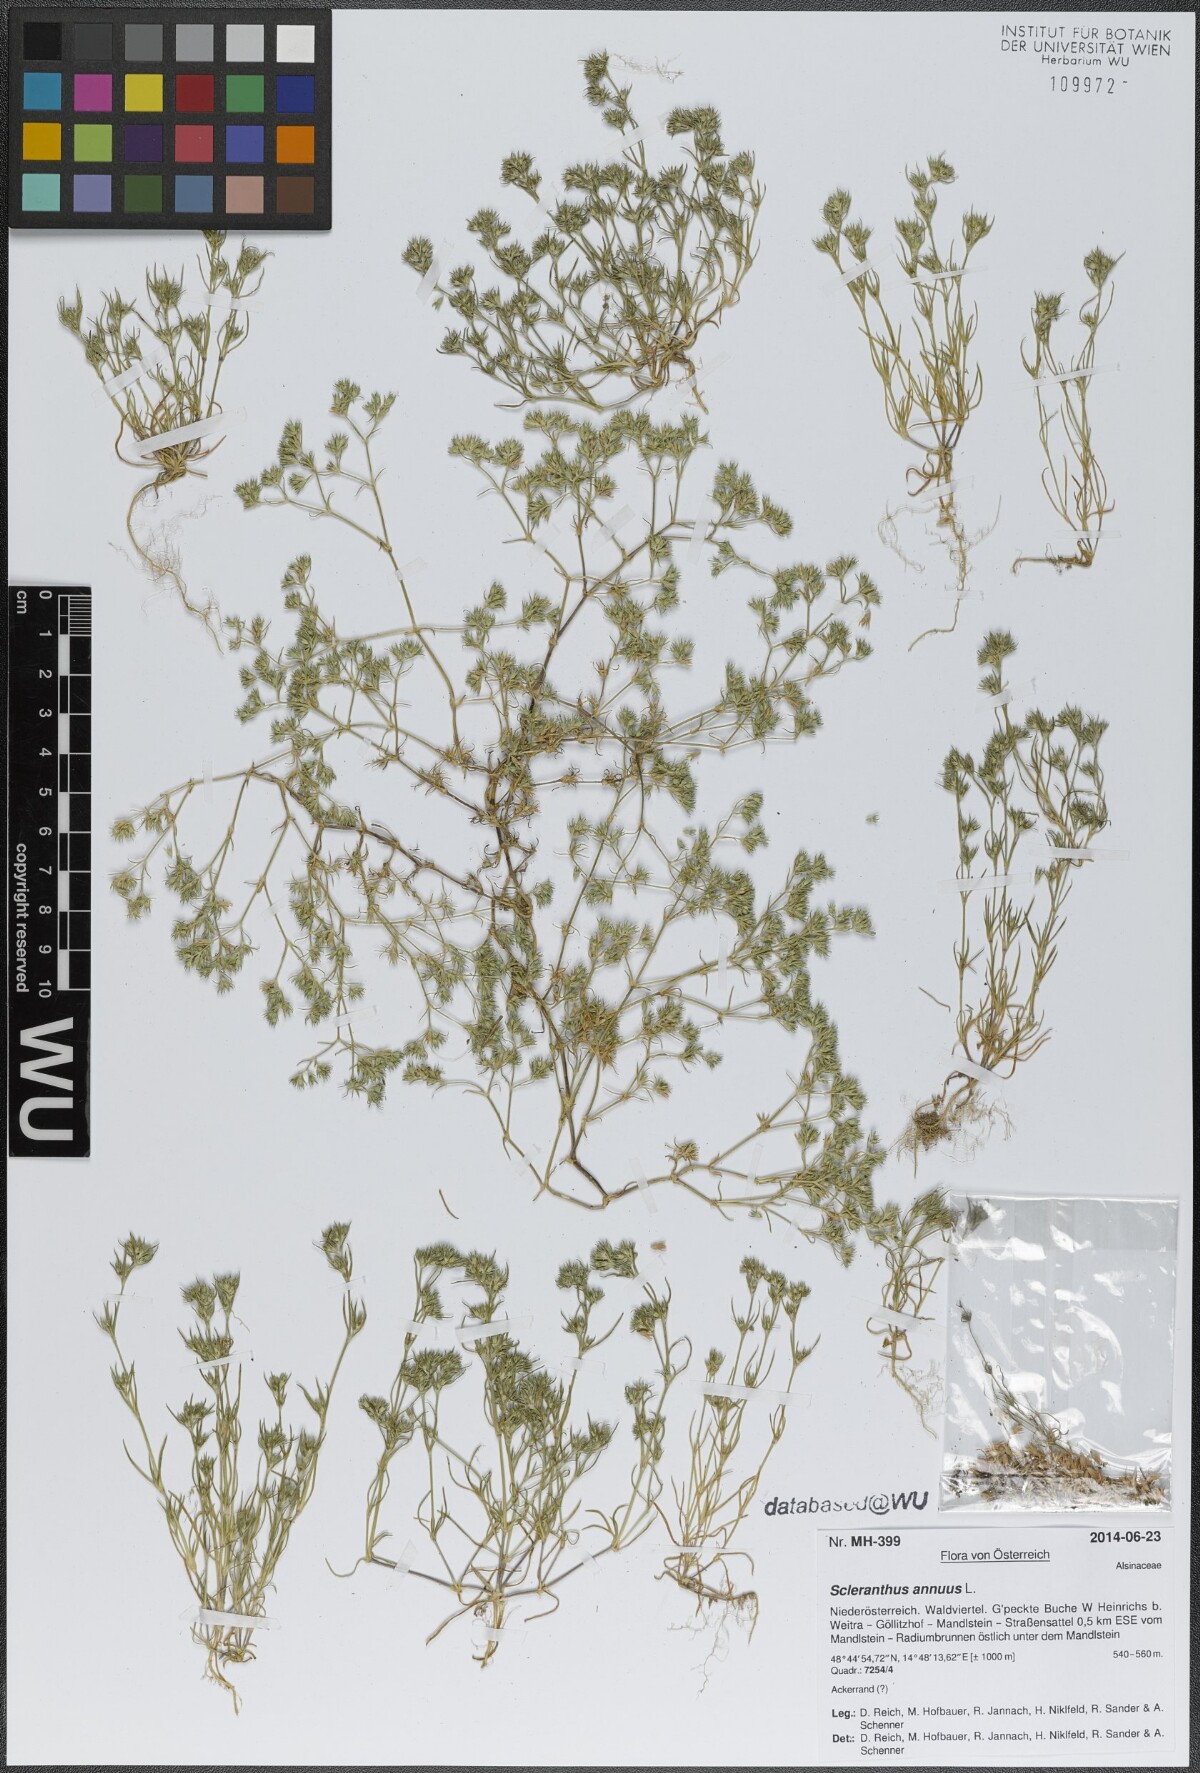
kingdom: Plantae
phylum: Tracheophyta
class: Magnoliopsida
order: Caryophyllales
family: Caryophyllaceae
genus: Scleranthus
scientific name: Scleranthus annuus
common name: Annual knawel
